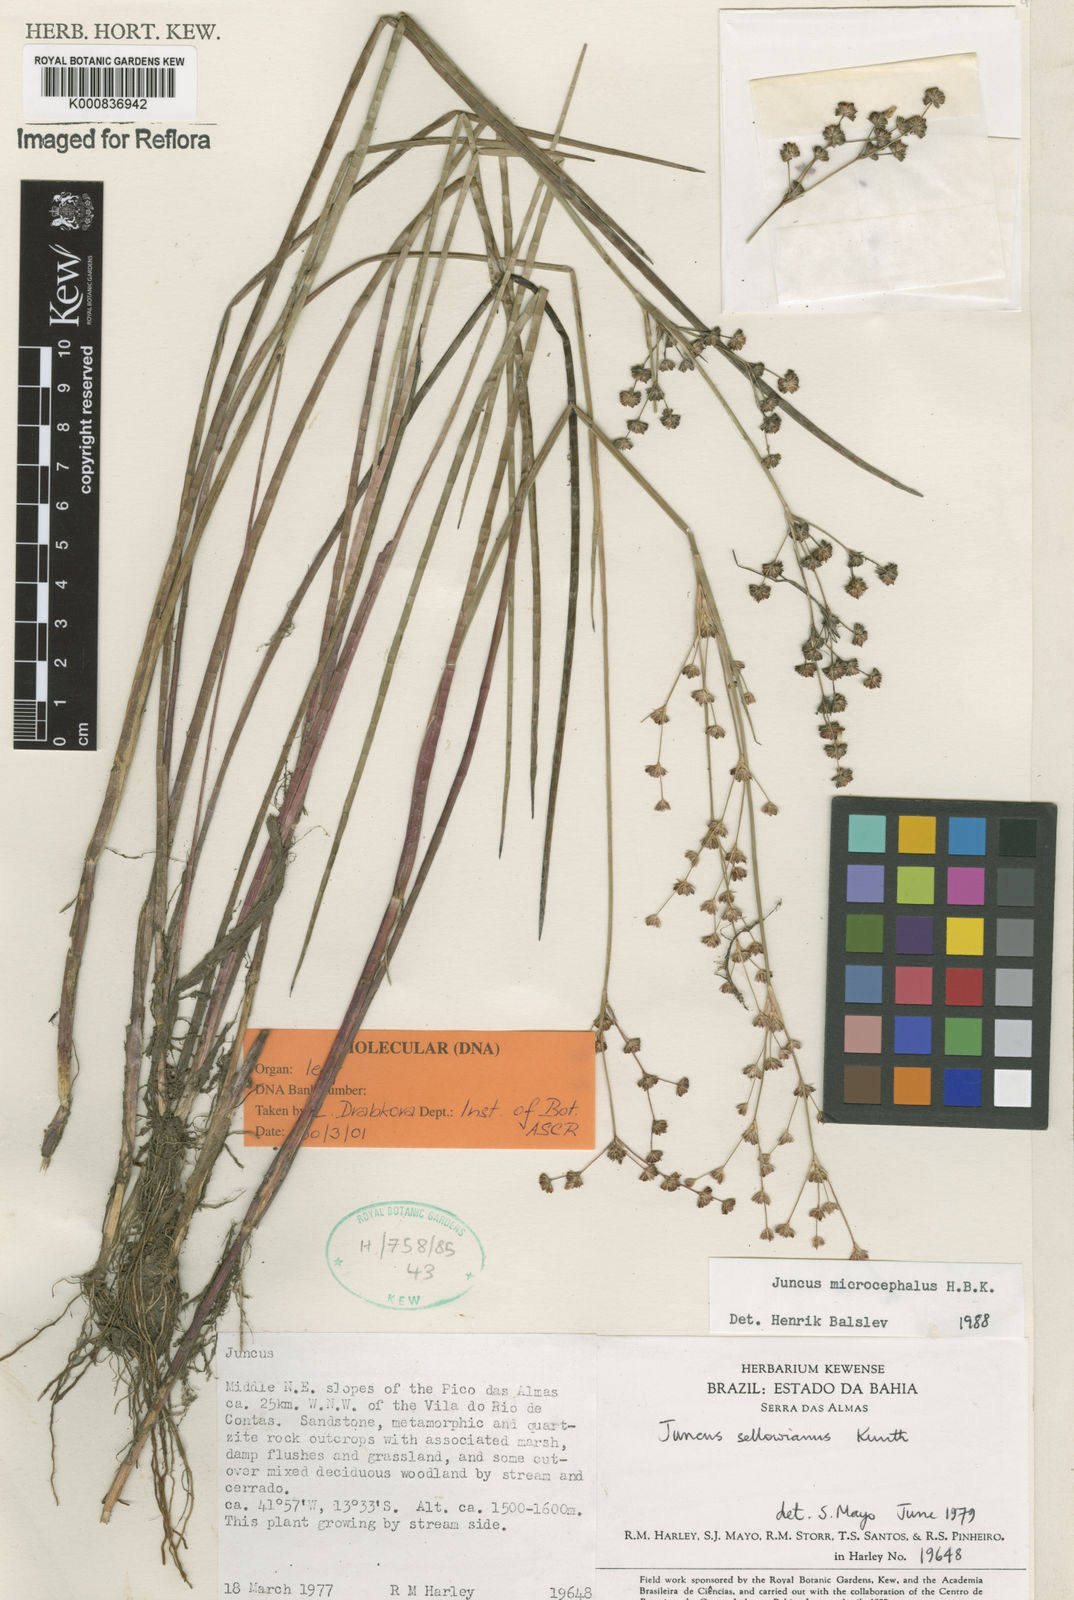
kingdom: Plantae
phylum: Tracheophyta
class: Liliopsida
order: Poales
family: Juncaceae
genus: Juncus
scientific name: Juncus microcephalus
